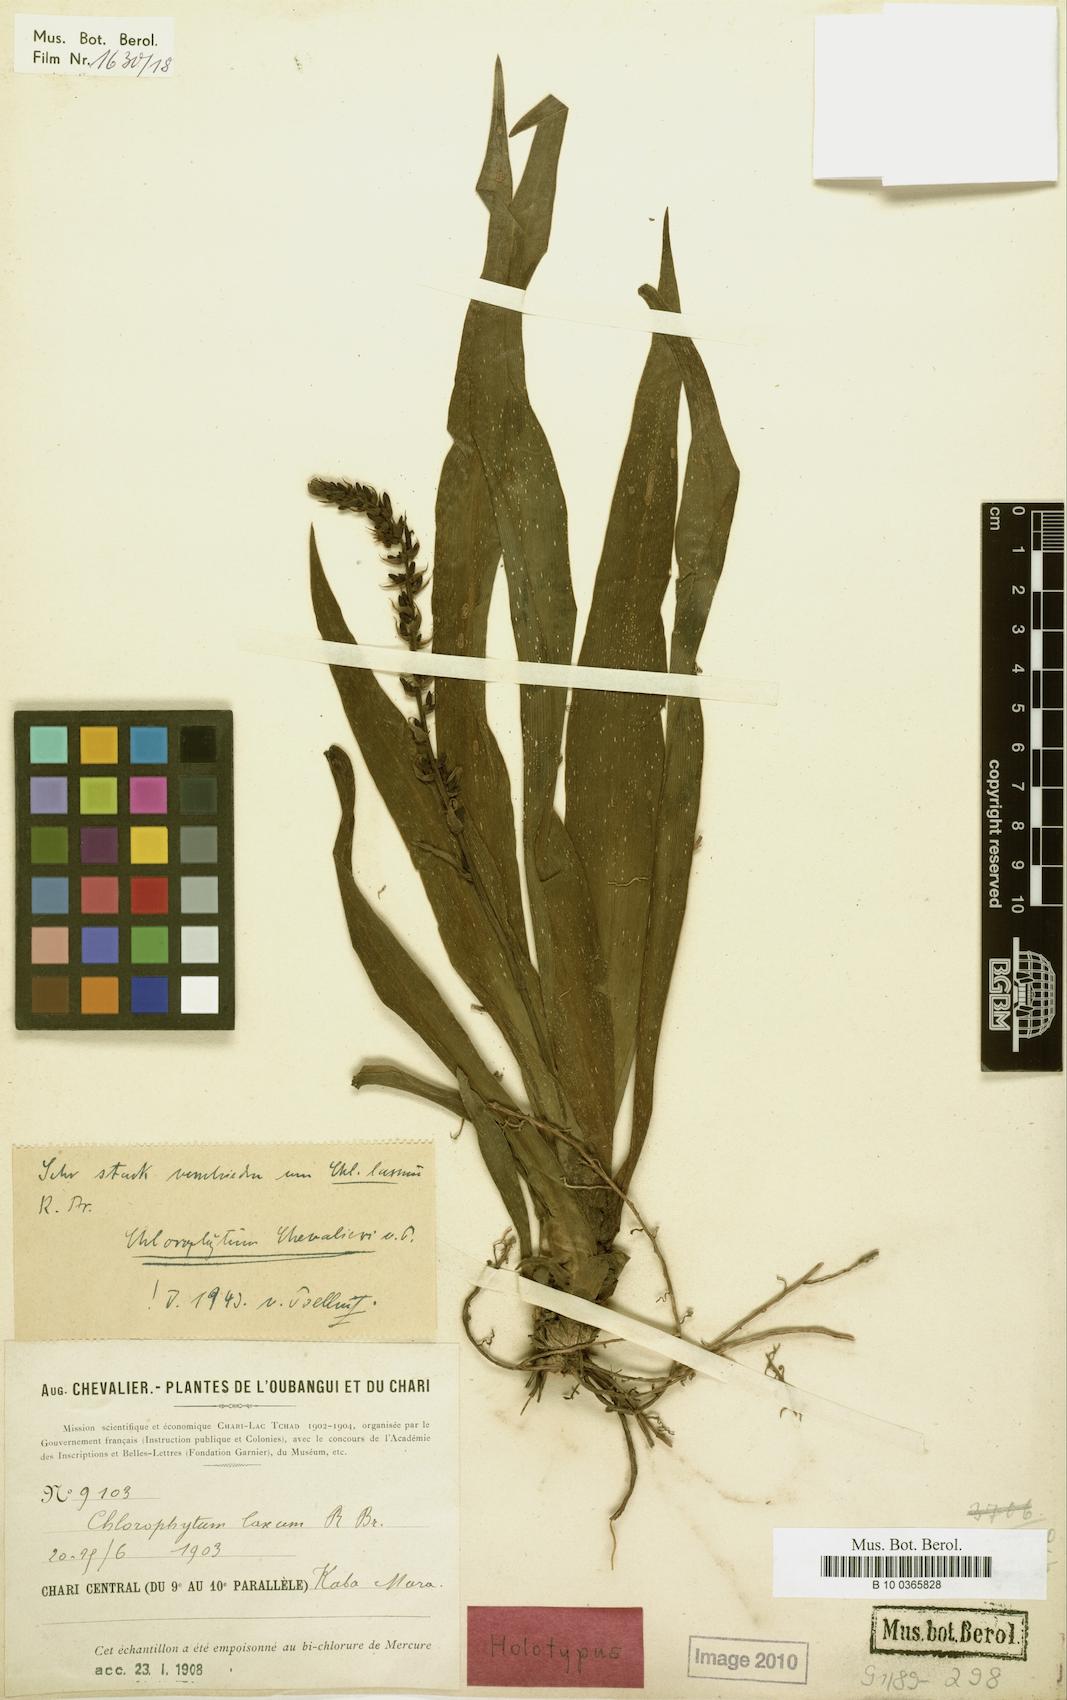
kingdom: Plantae
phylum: Tracheophyta
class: Liliopsida
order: Asparagales
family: Asparagaceae
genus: Chlorophytum
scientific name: Chlorophytum chevalieri
